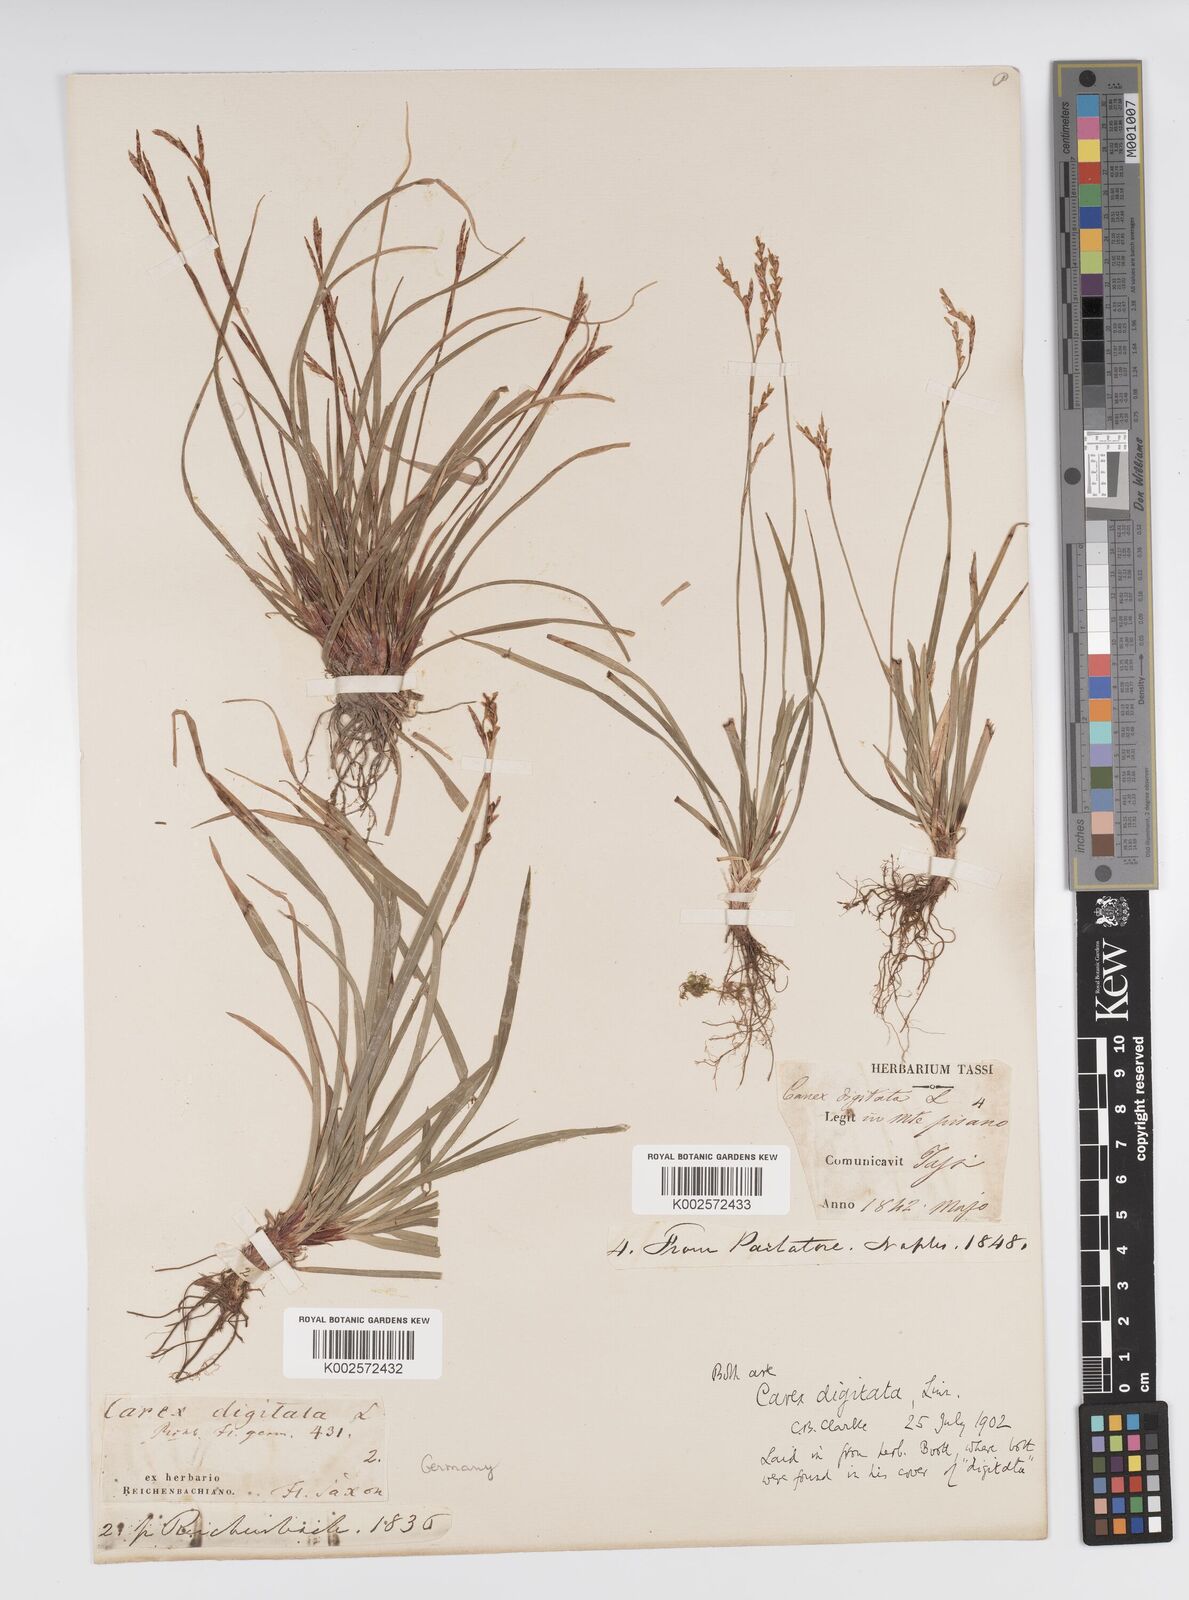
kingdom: Plantae
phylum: Tracheophyta
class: Liliopsida
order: Poales
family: Cyperaceae
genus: Carex
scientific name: Carex digitata
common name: Fingered sedge
